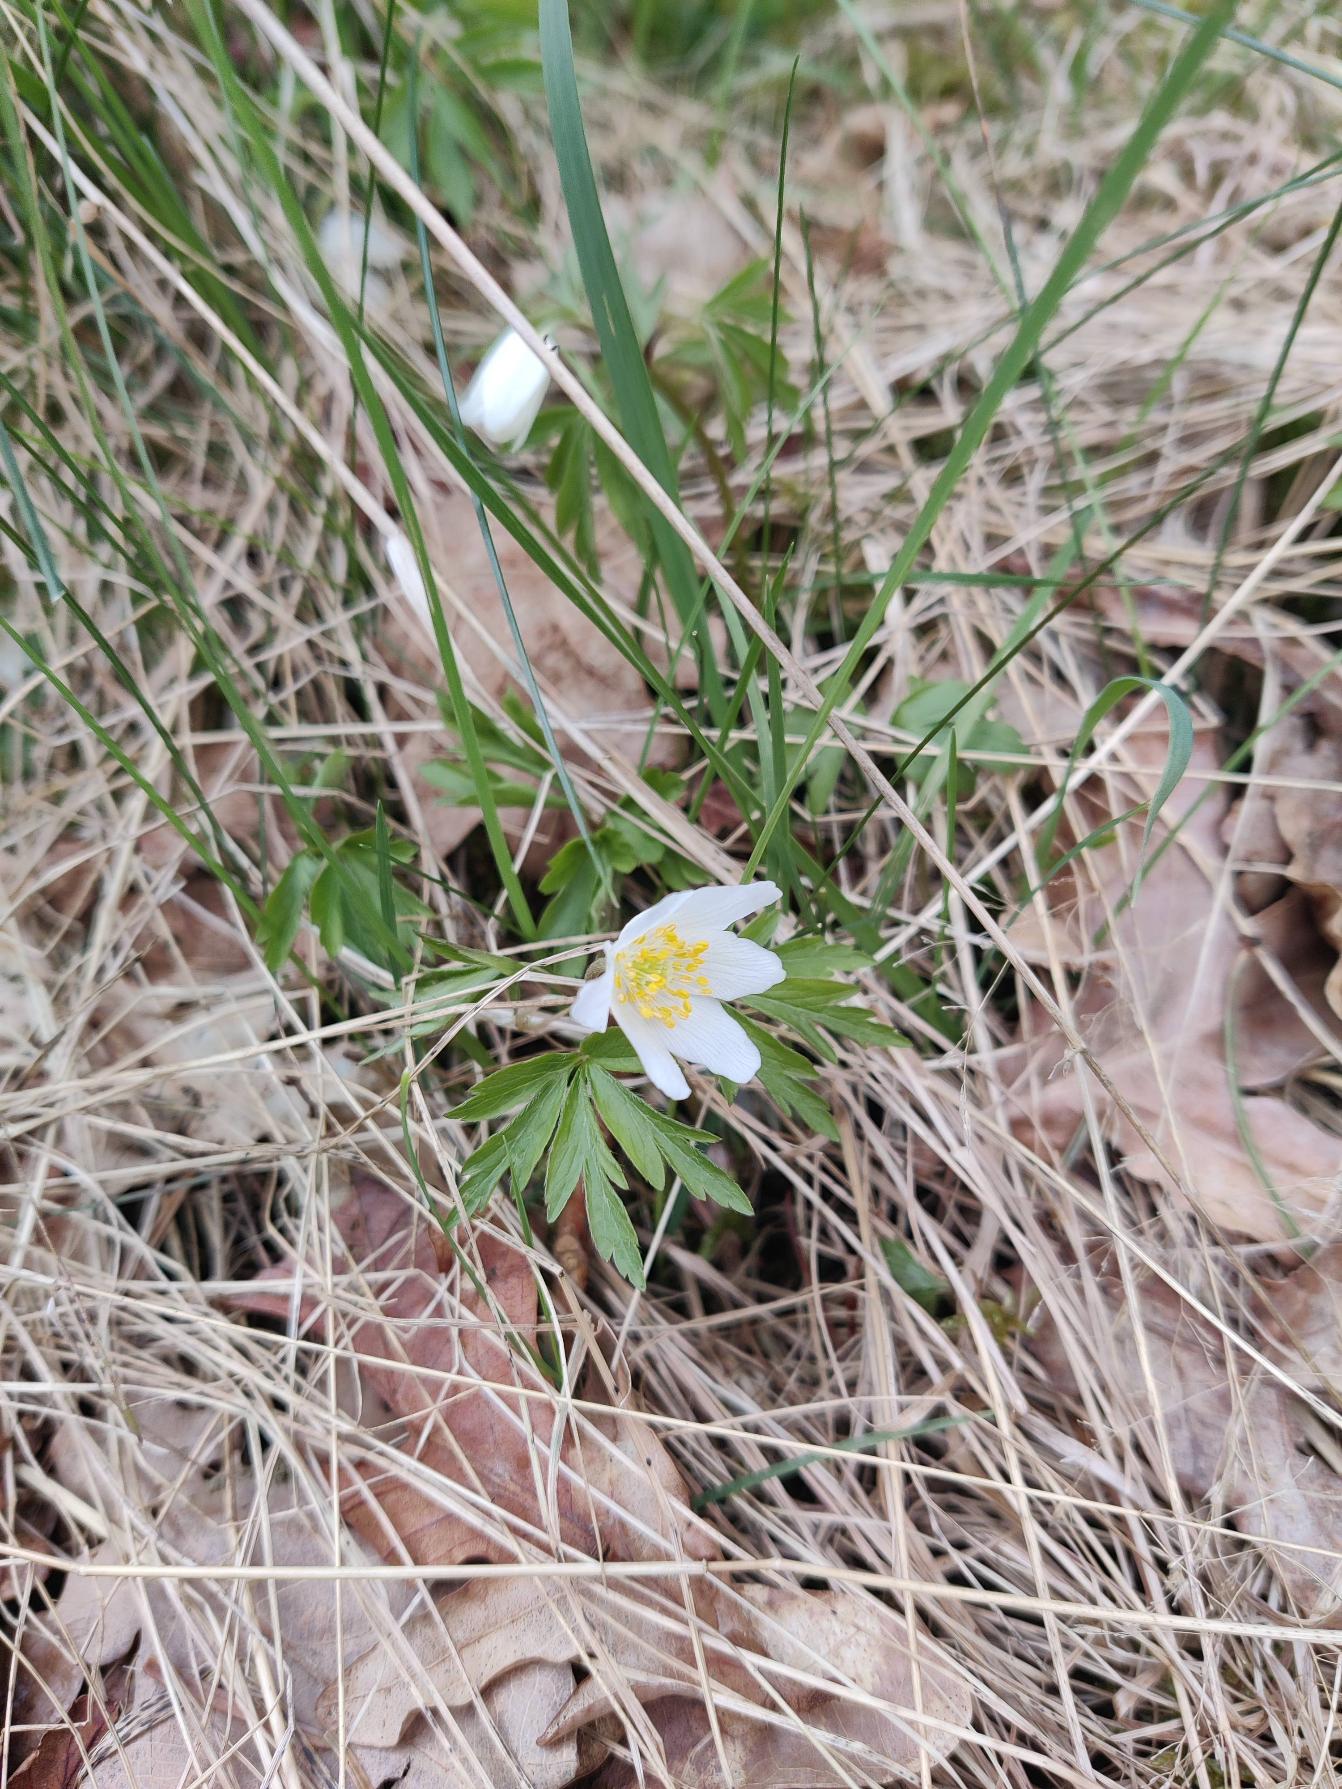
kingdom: Plantae
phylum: Tracheophyta
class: Magnoliopsida
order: Ranunculales
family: Ranunculaceae
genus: Anemone
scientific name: Anemone nemorosa
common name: Hvid anemone
